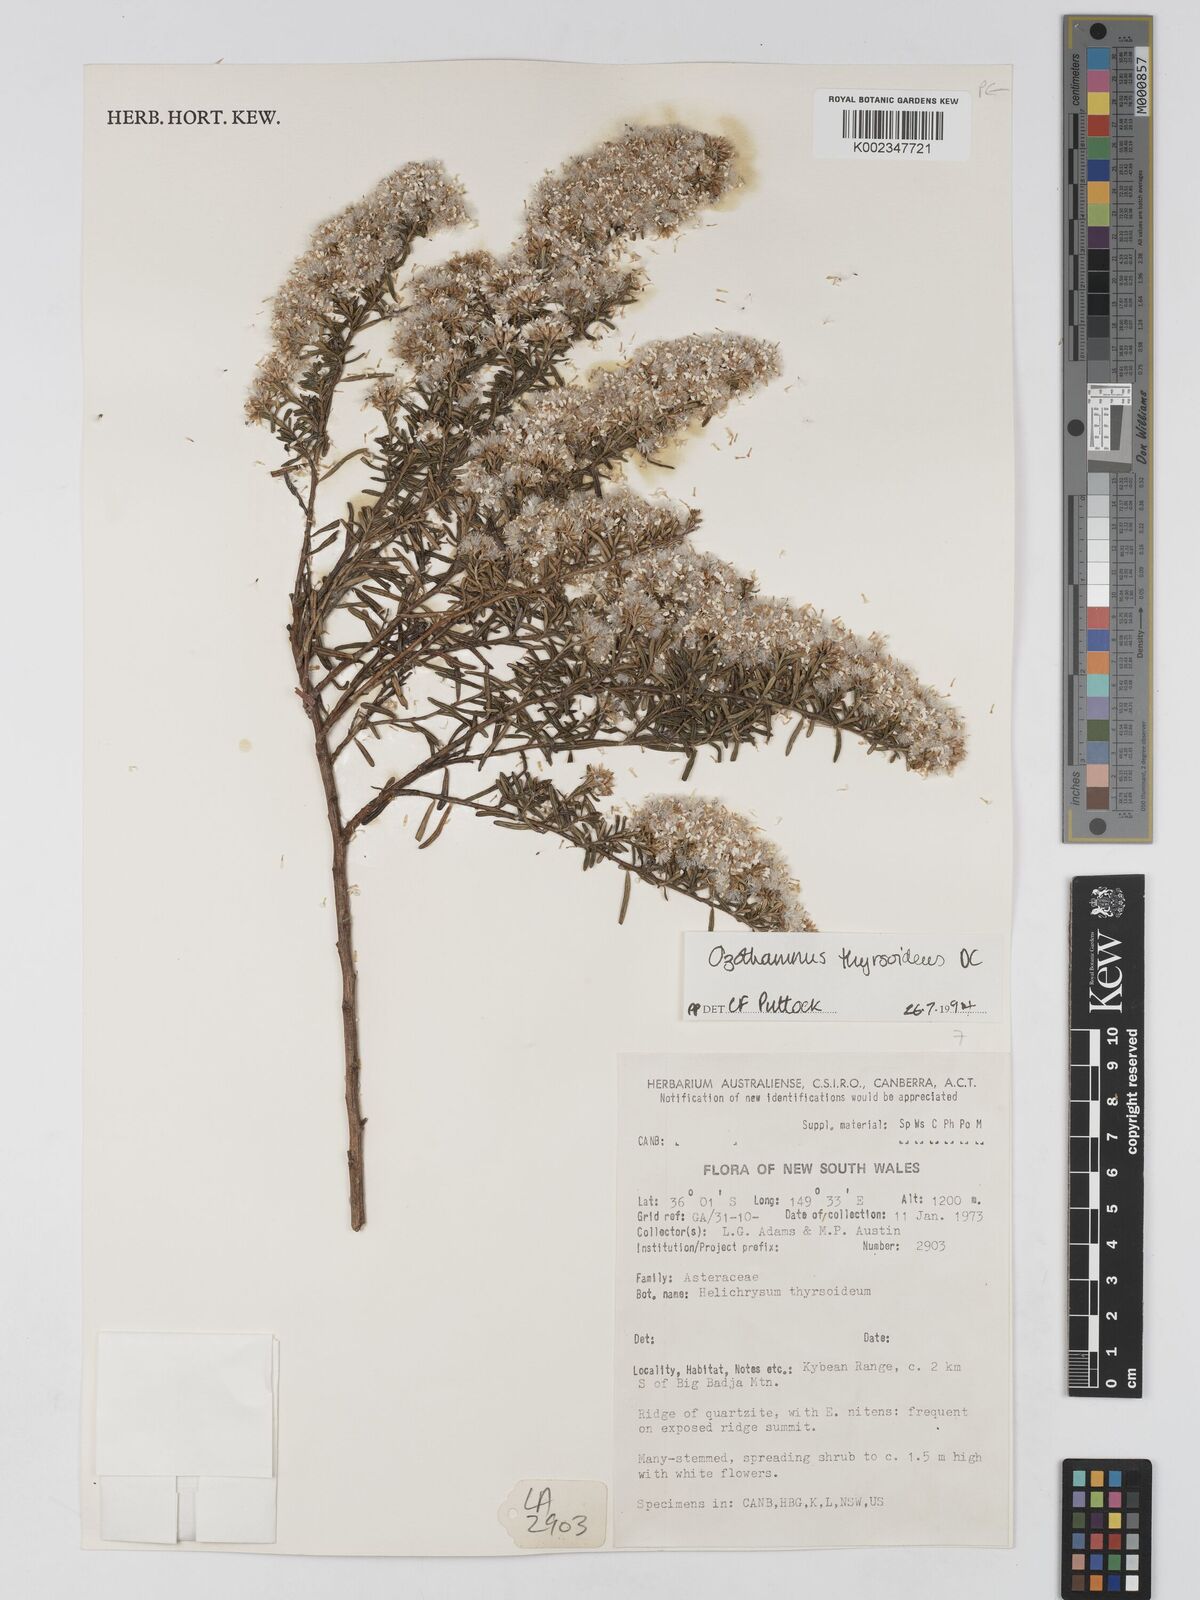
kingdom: Plantae
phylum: Tracheophyta
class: Magnoliopsida
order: Asterales
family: Asteraceae
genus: Ozothamnus
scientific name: Ozothamnus thyrsoideus
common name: Snow-in-summer
